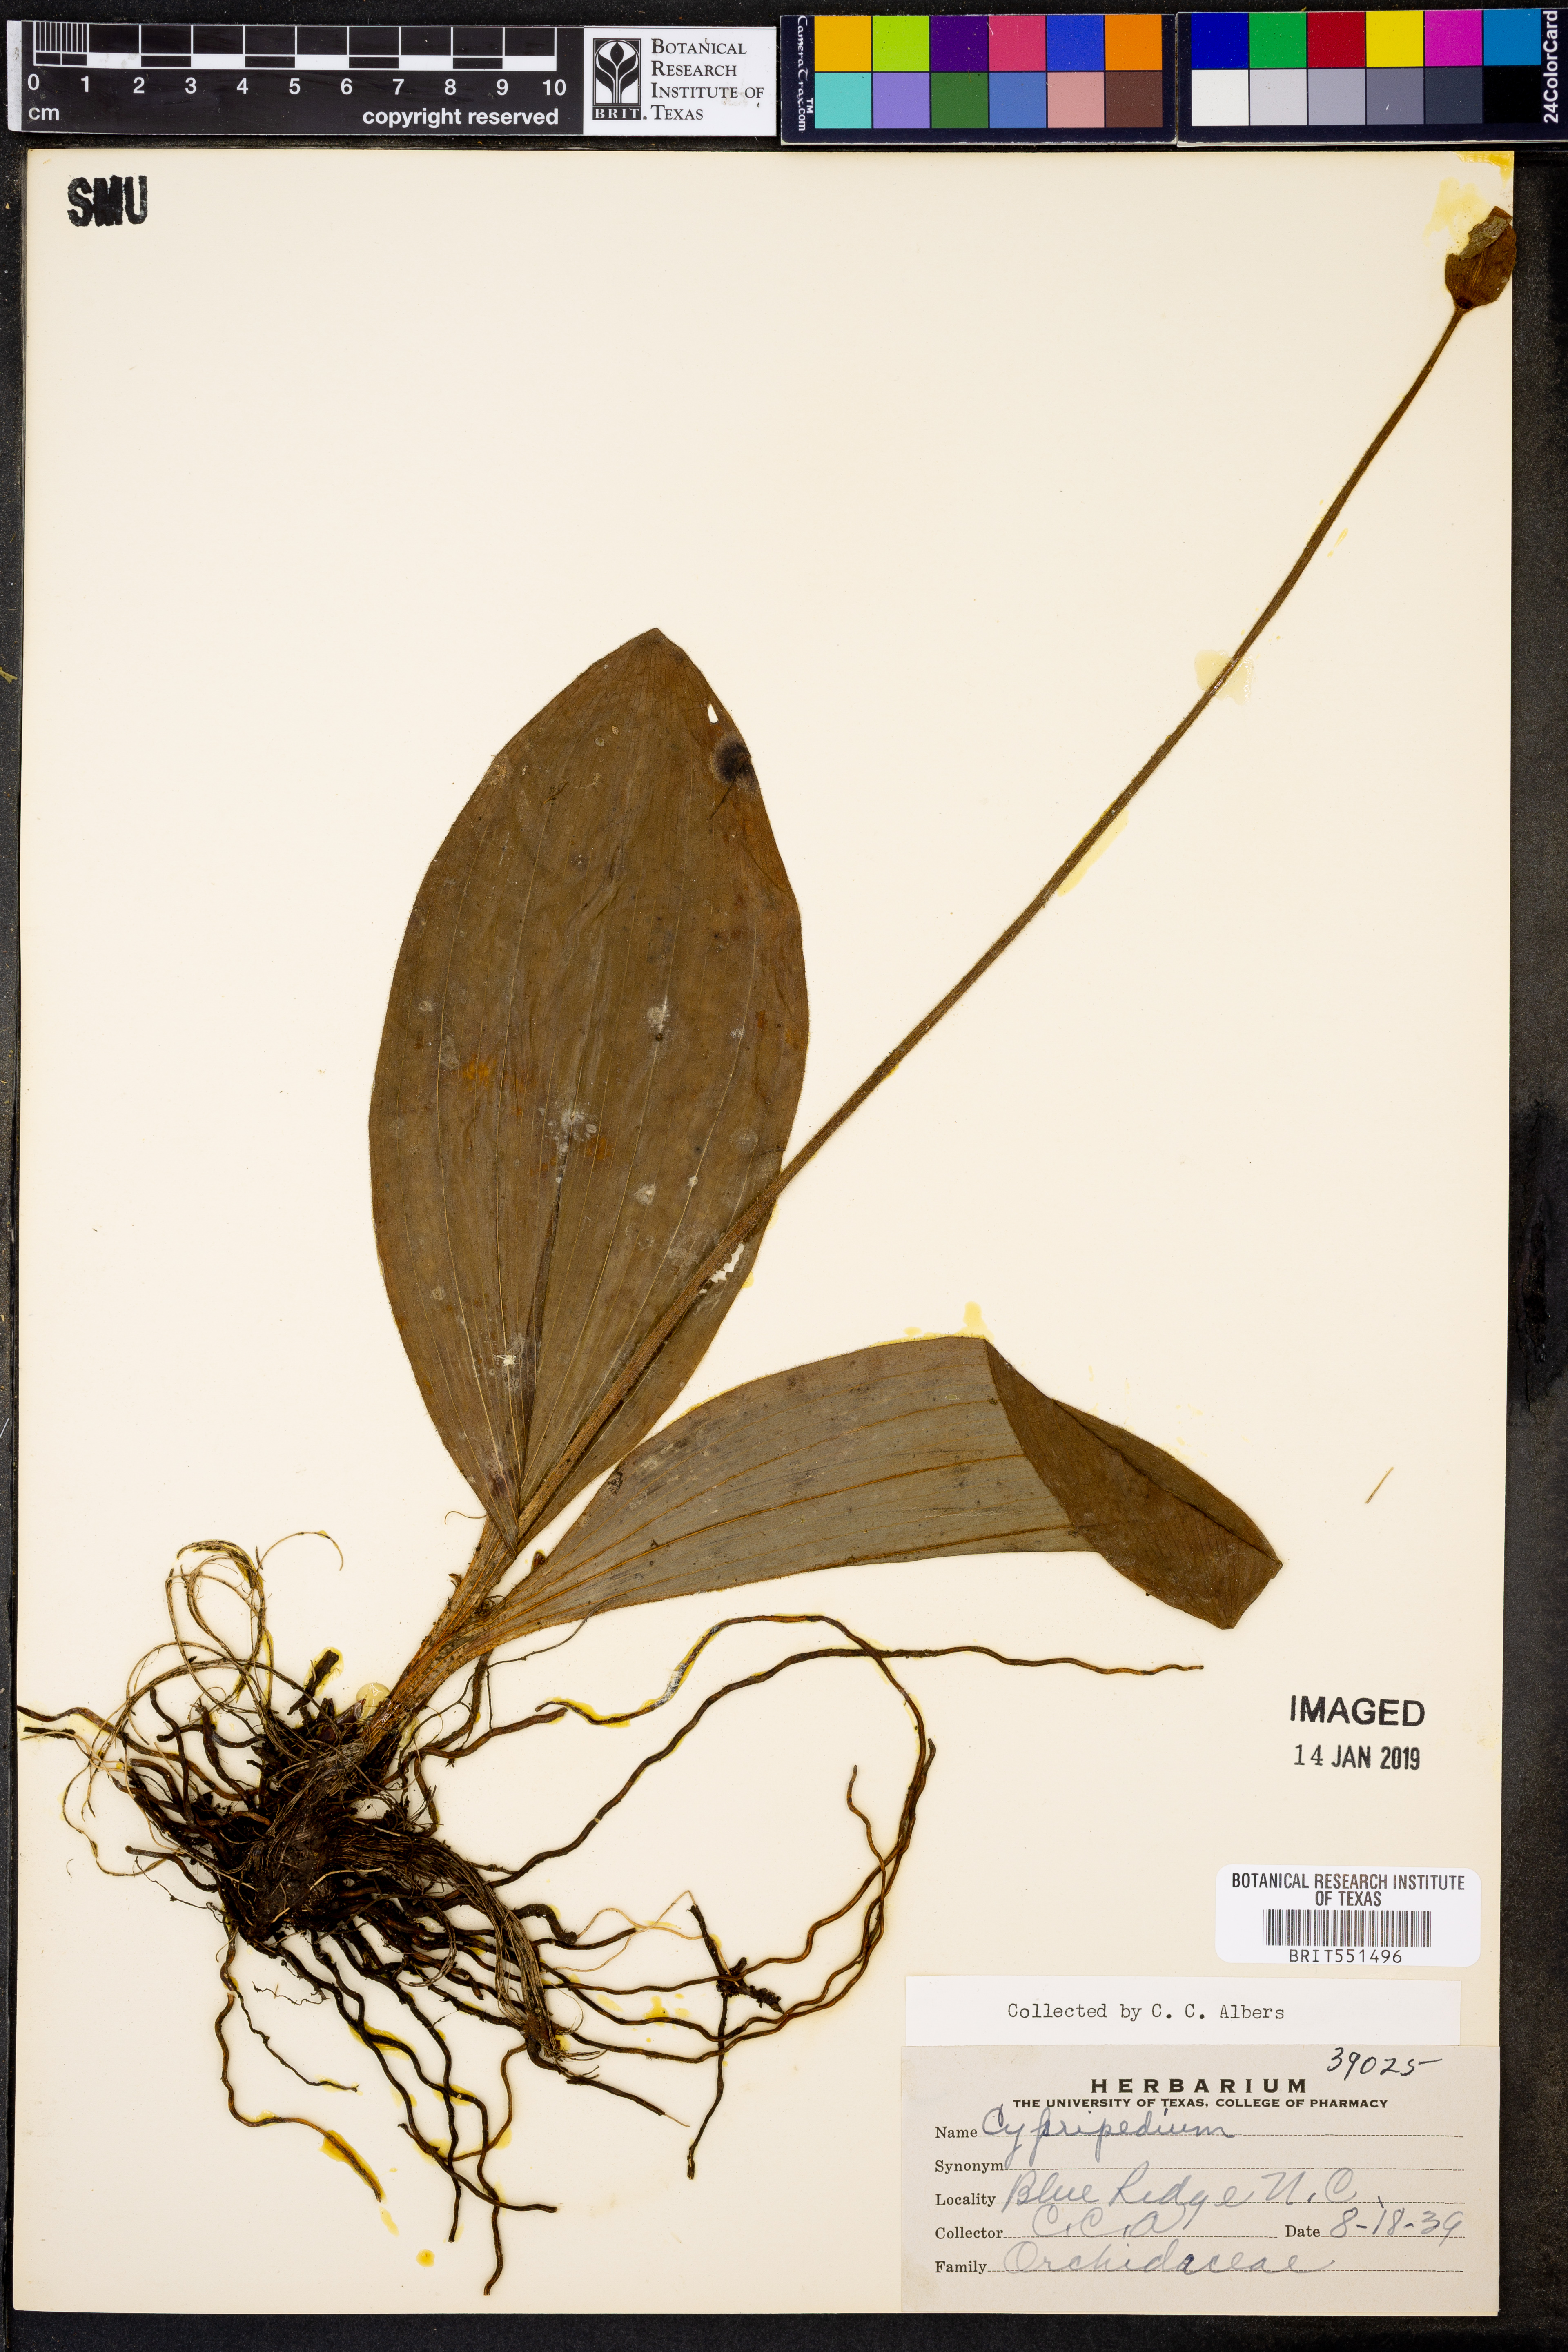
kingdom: Plantae
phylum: Tracheophyta
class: Liliopsida
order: Asparagales
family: Orchidaceae
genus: Cypripedium
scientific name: Cypripedium
